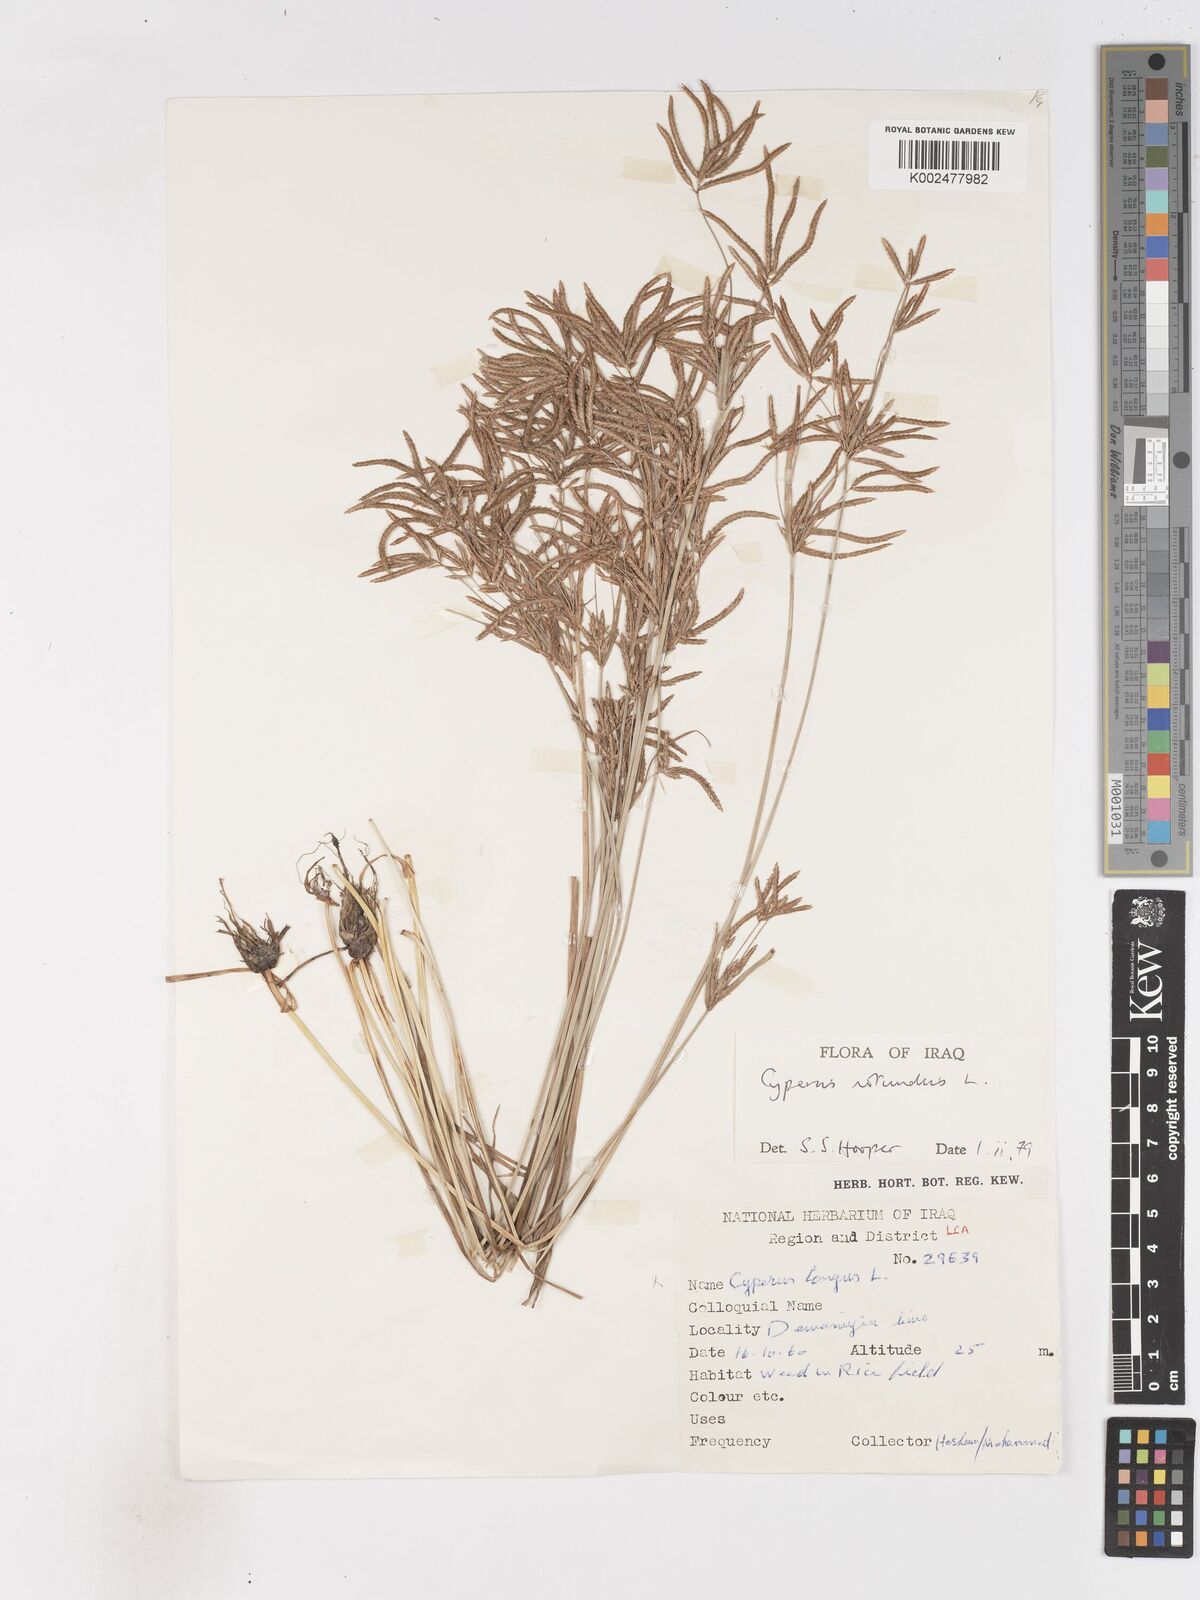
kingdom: Plantae
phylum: Tracheophyta
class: Liliopsida
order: Poales
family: Cyperaceae
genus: Cyperus
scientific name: Cyperus rotundus
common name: Nutgrass
